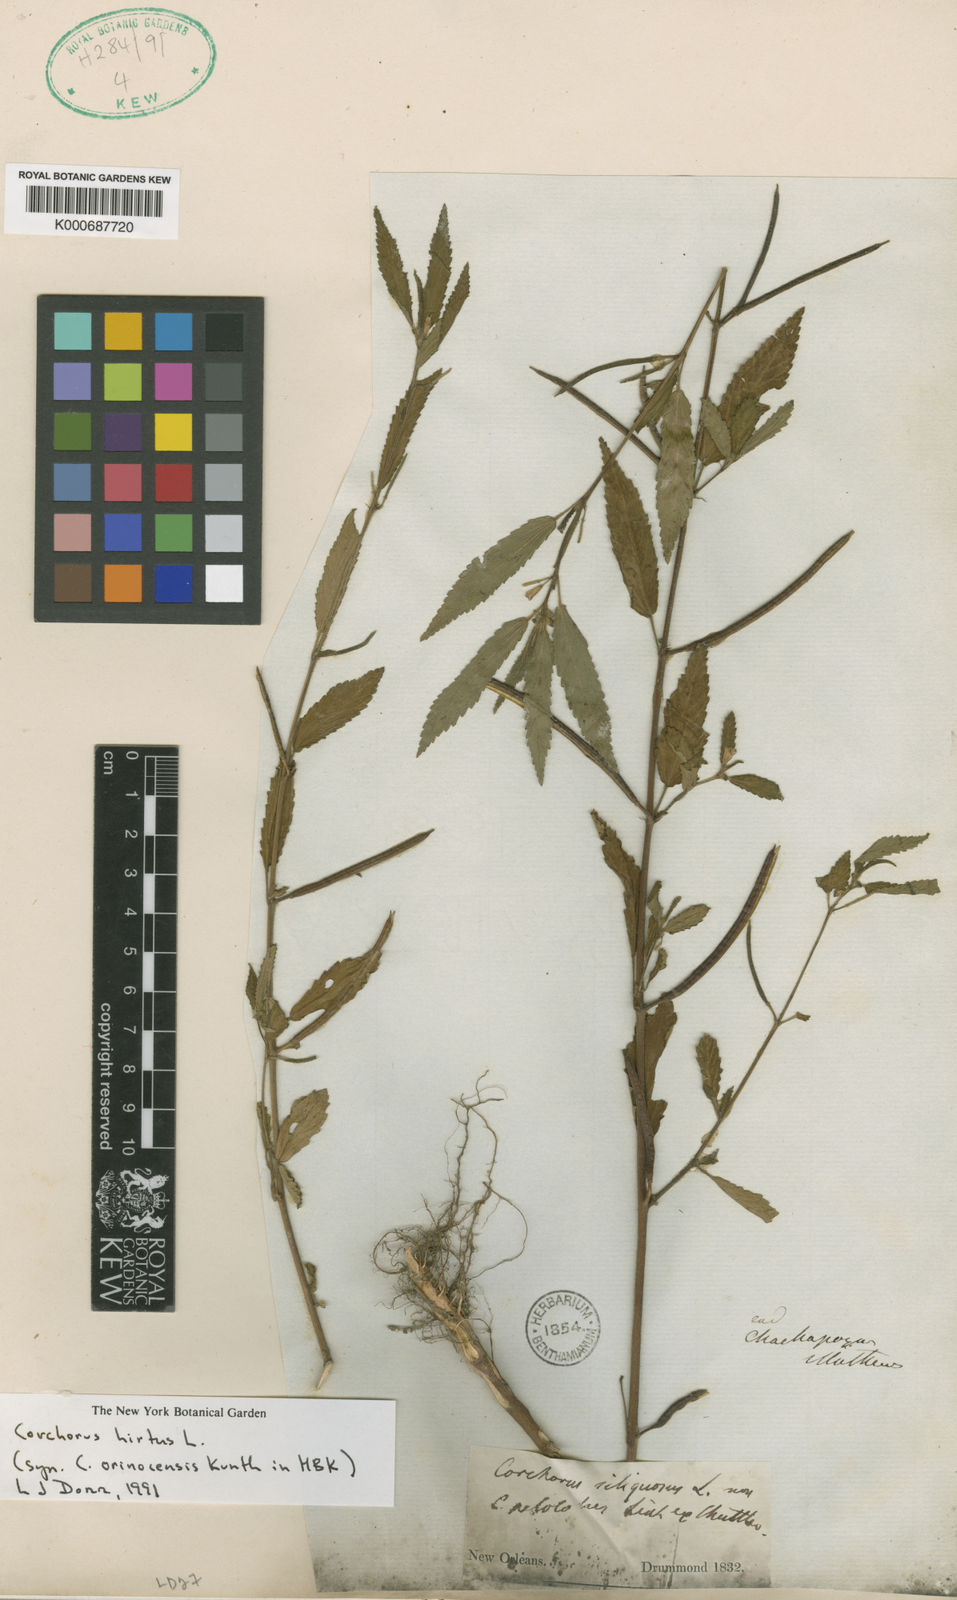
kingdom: Plantae
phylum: Tracheophyta
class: Magnoliopsida
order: Malvales
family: Malvaceae
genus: Corchorus
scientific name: Corchorus hirtus
